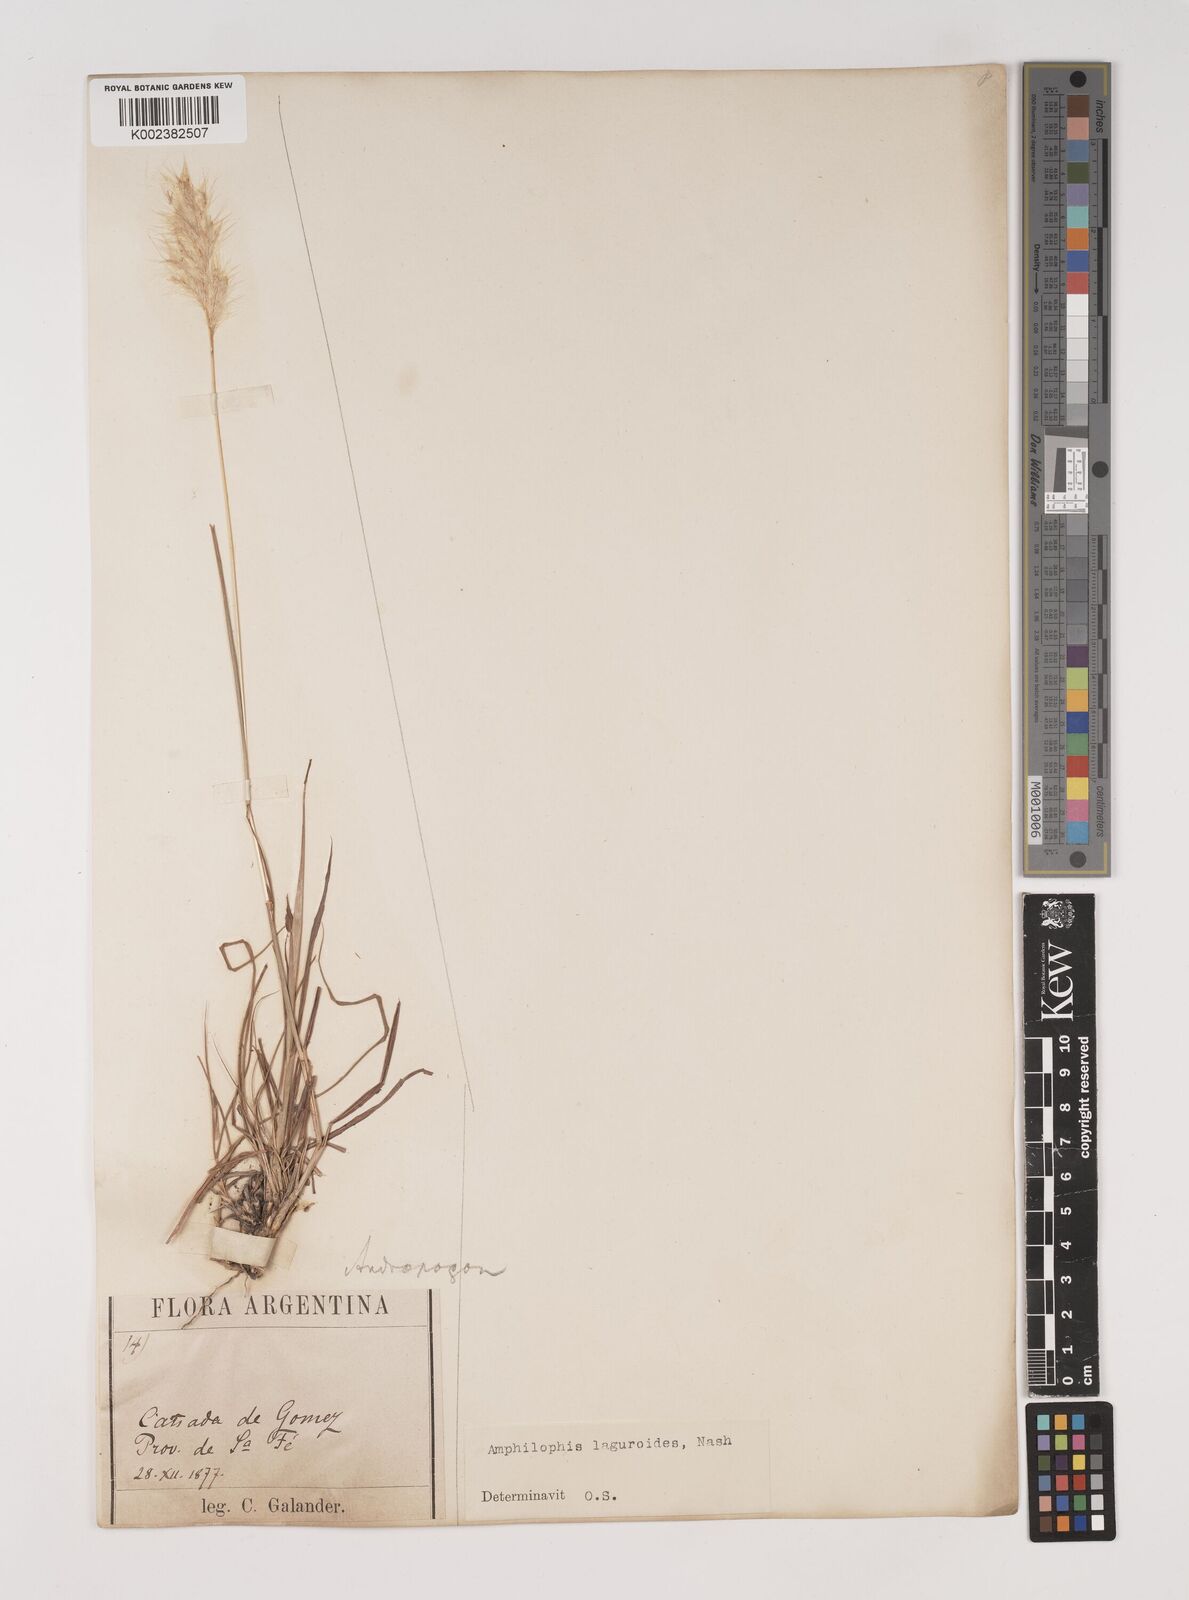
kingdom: Plantae
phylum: Tracheophyta
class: Liliopsida
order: Poales
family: Poaceae
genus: Bothriochloa
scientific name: Bothriochloa laguroides
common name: Silver bluestem
